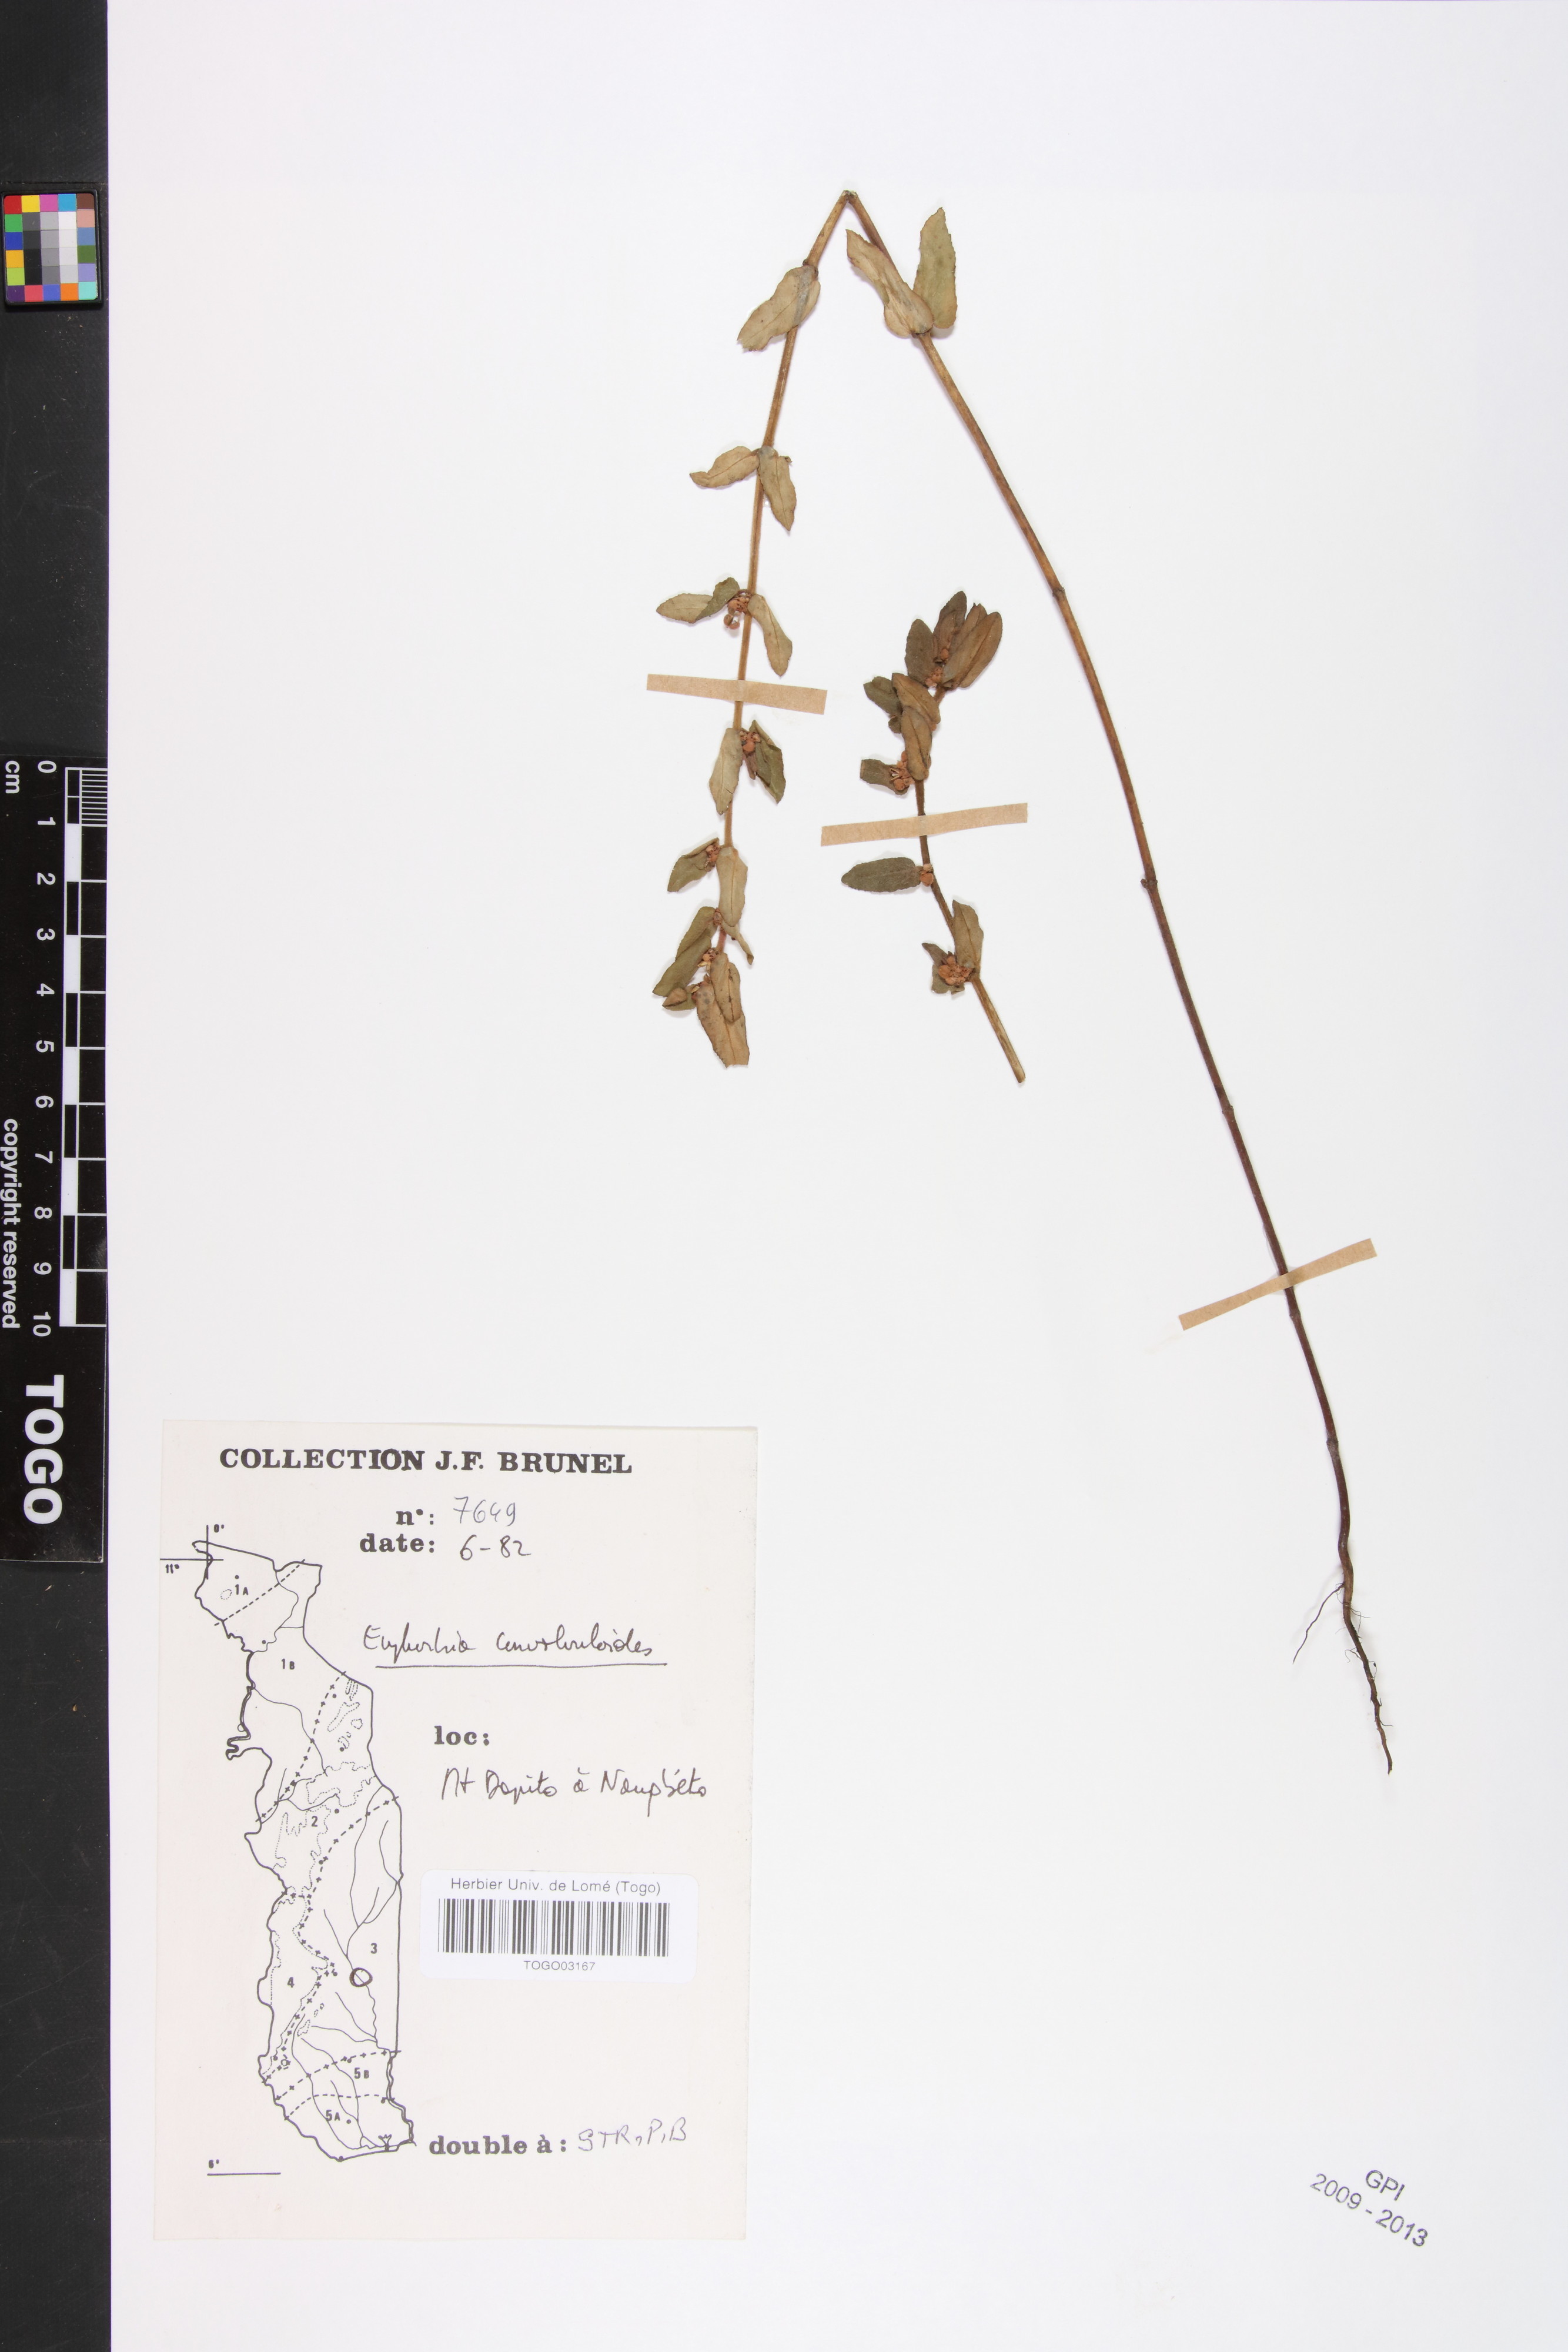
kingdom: Plantae
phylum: Tracheophyta
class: Magnoliopsida
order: Malpighiales
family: Euphorbiaceae
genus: Euphorbia
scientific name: Euphorbia convolvuloides
